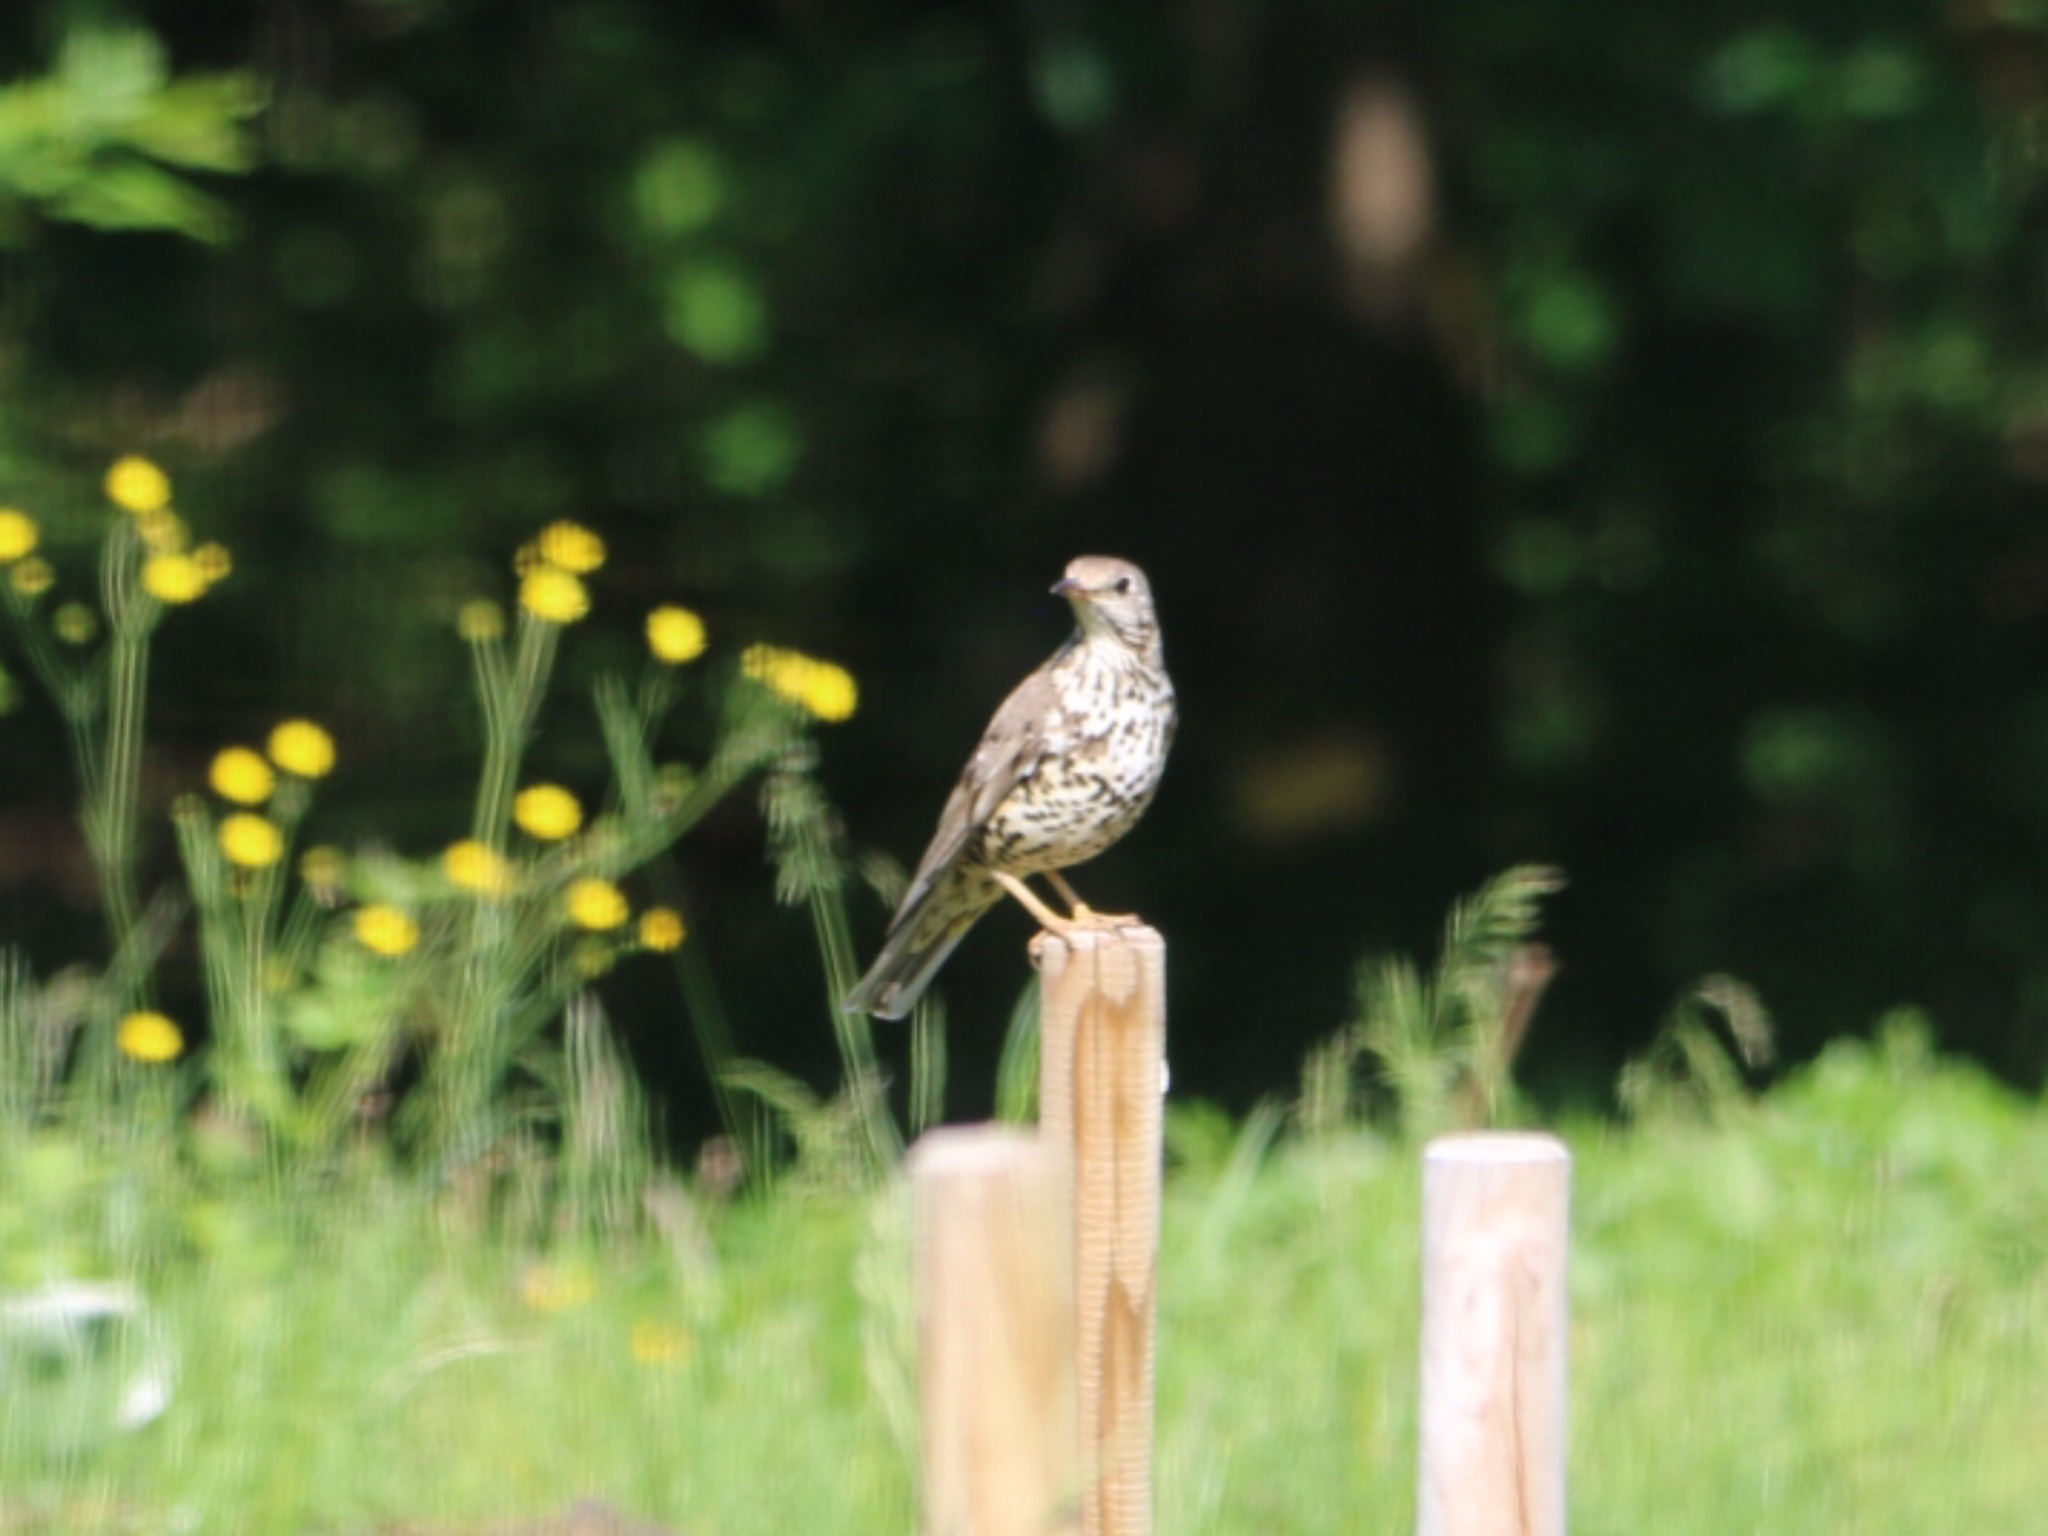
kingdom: Animalia
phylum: Chordata
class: Aves
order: Passeriformes
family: Turdidae
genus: Turdus
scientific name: Turdus viscivorus
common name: Misteldrossel
